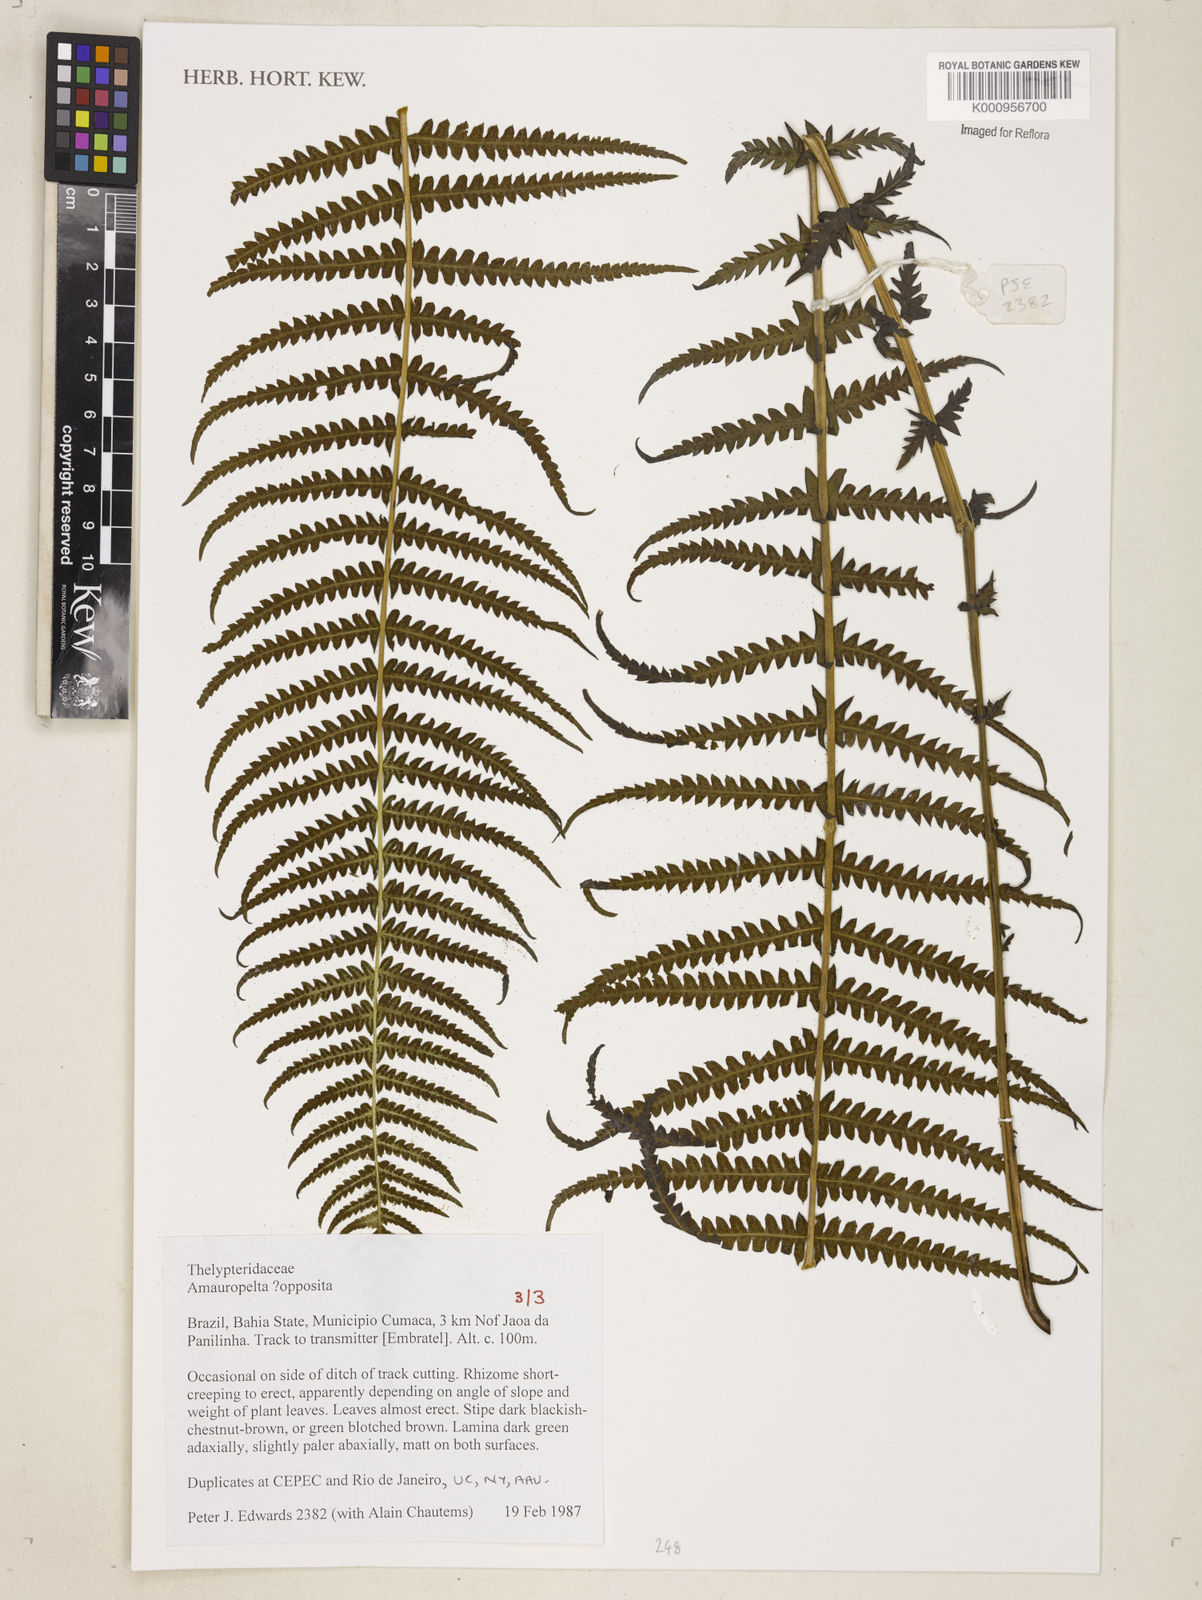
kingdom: Plantae
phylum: Tracheophyta
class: Polypodiopsida
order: Polypodiales
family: Thelypteridaceae
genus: Amauropelta
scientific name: Amauropelta opposita
